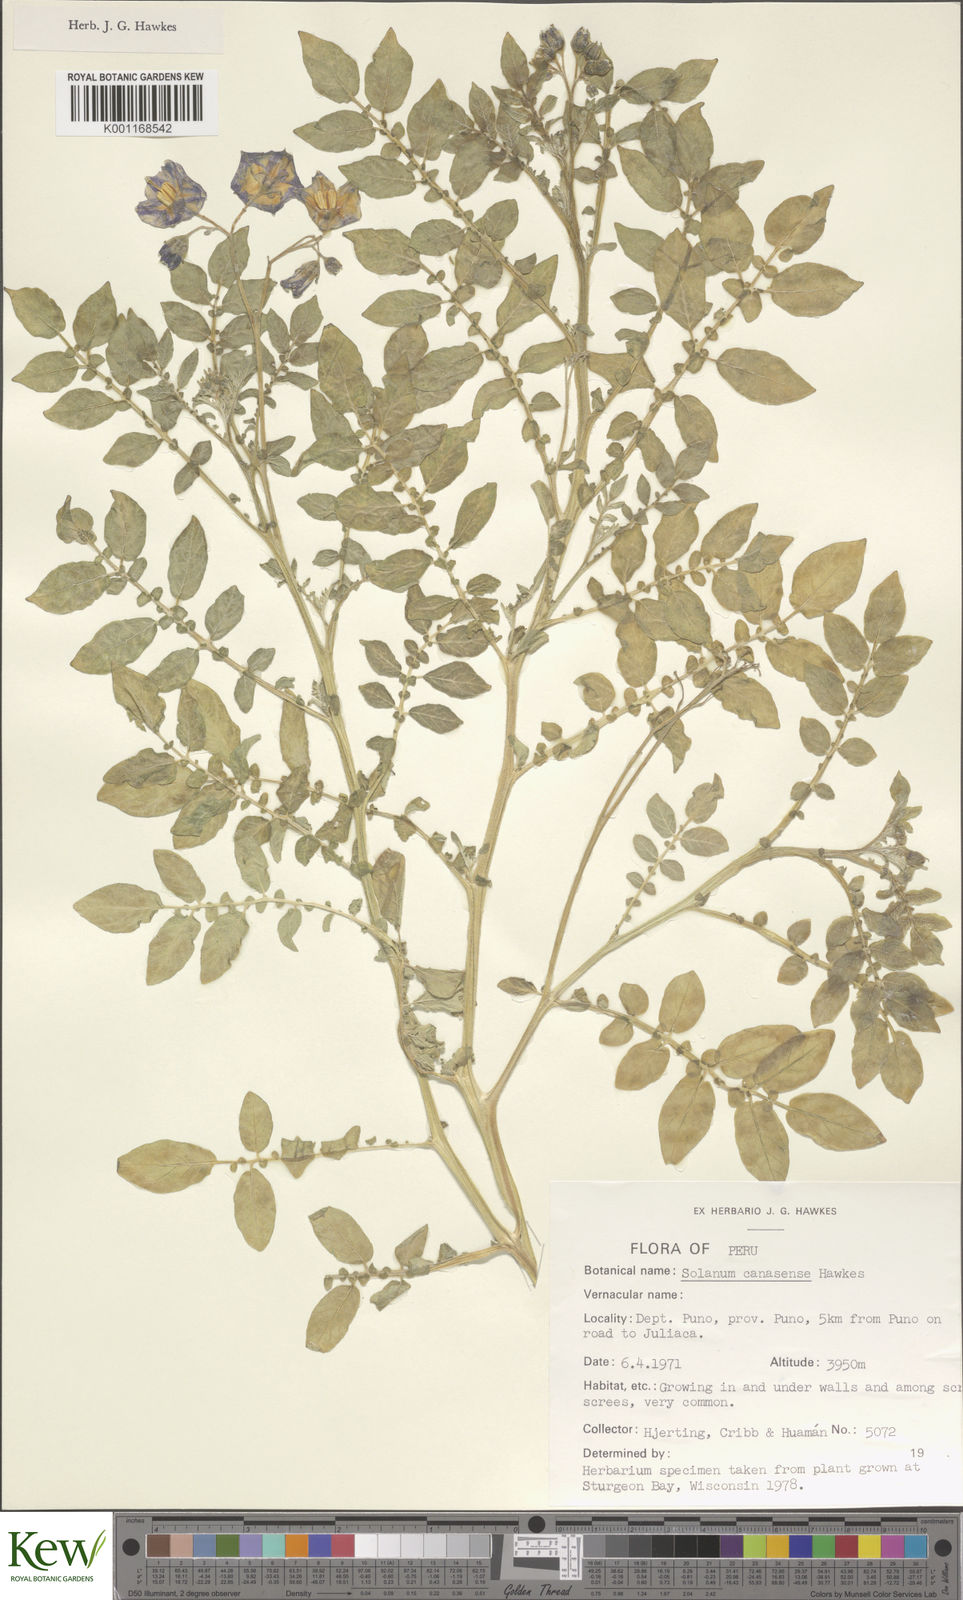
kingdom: Plantae
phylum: Tracheophyta
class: Magnoliopsida
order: Solanales
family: Solanaceae
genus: Solanum
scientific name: Solanum candolleanum
